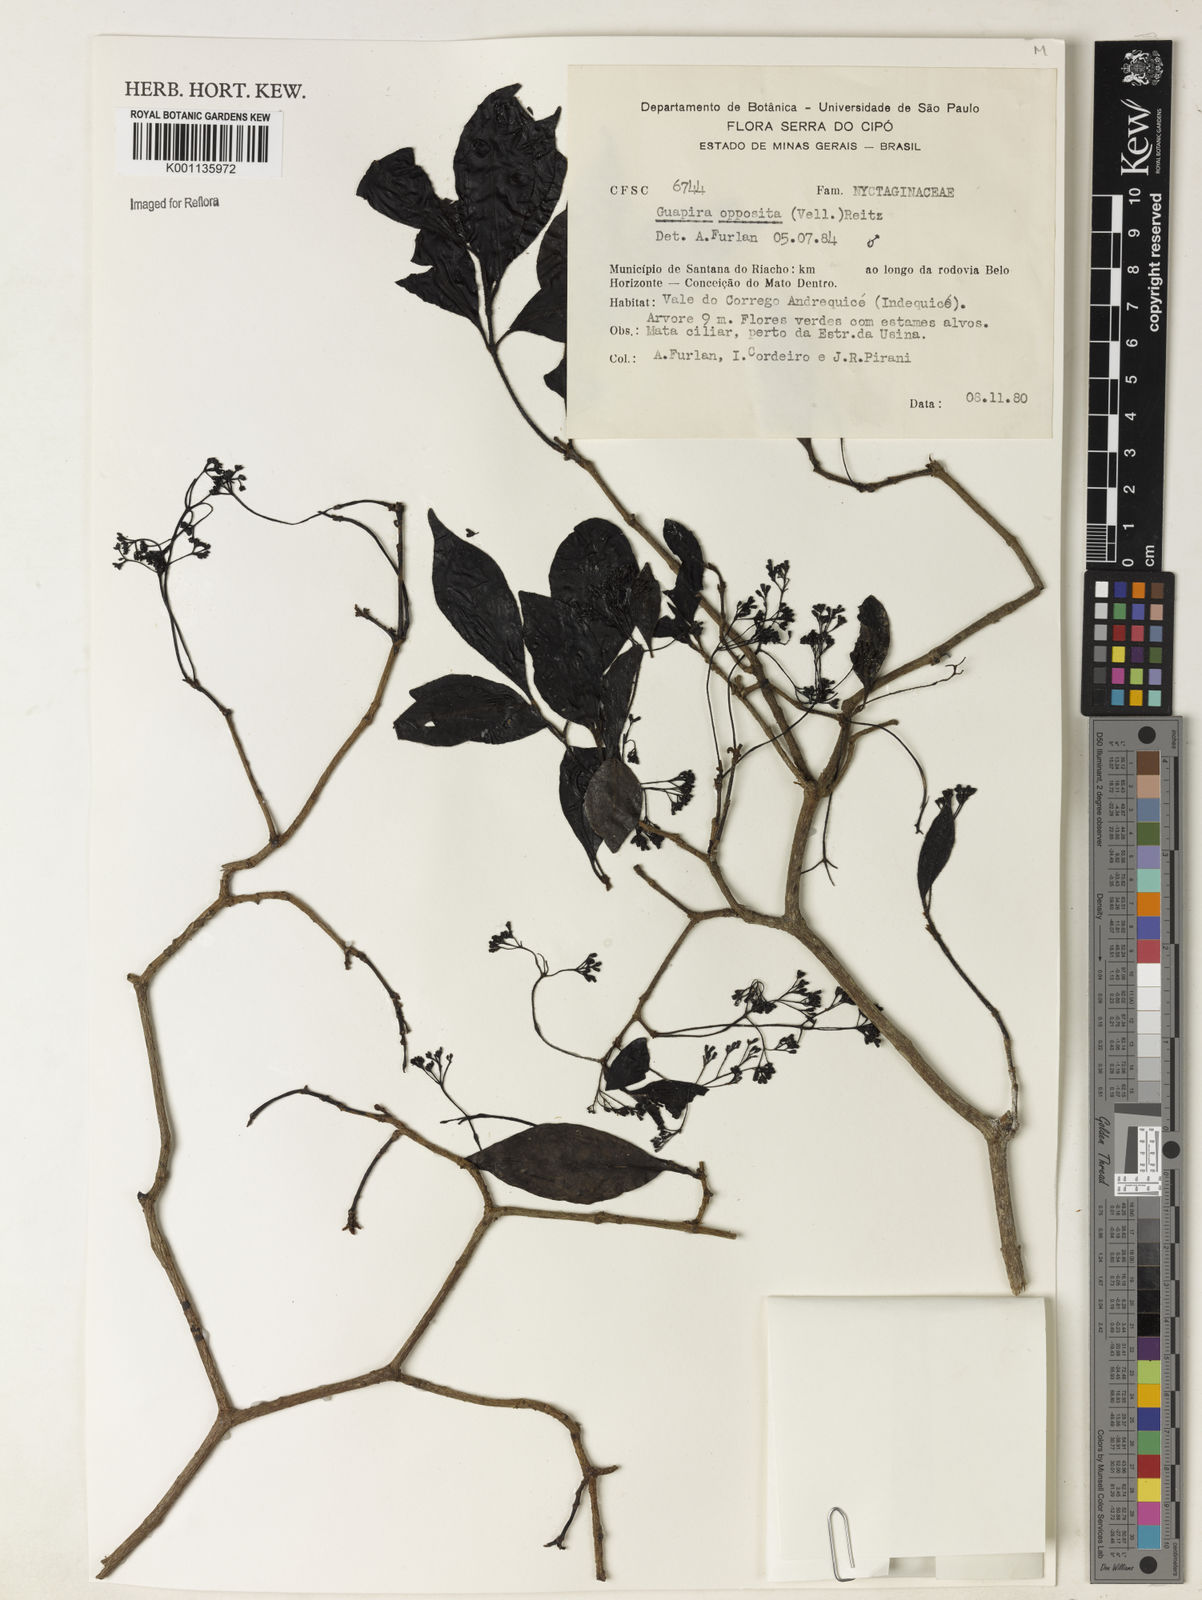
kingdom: Plantae
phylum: Tracheophyta
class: Magnoliopsida
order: Caryophyllales
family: Nyctaginaceae
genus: Guapira
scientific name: Guapira opposita
